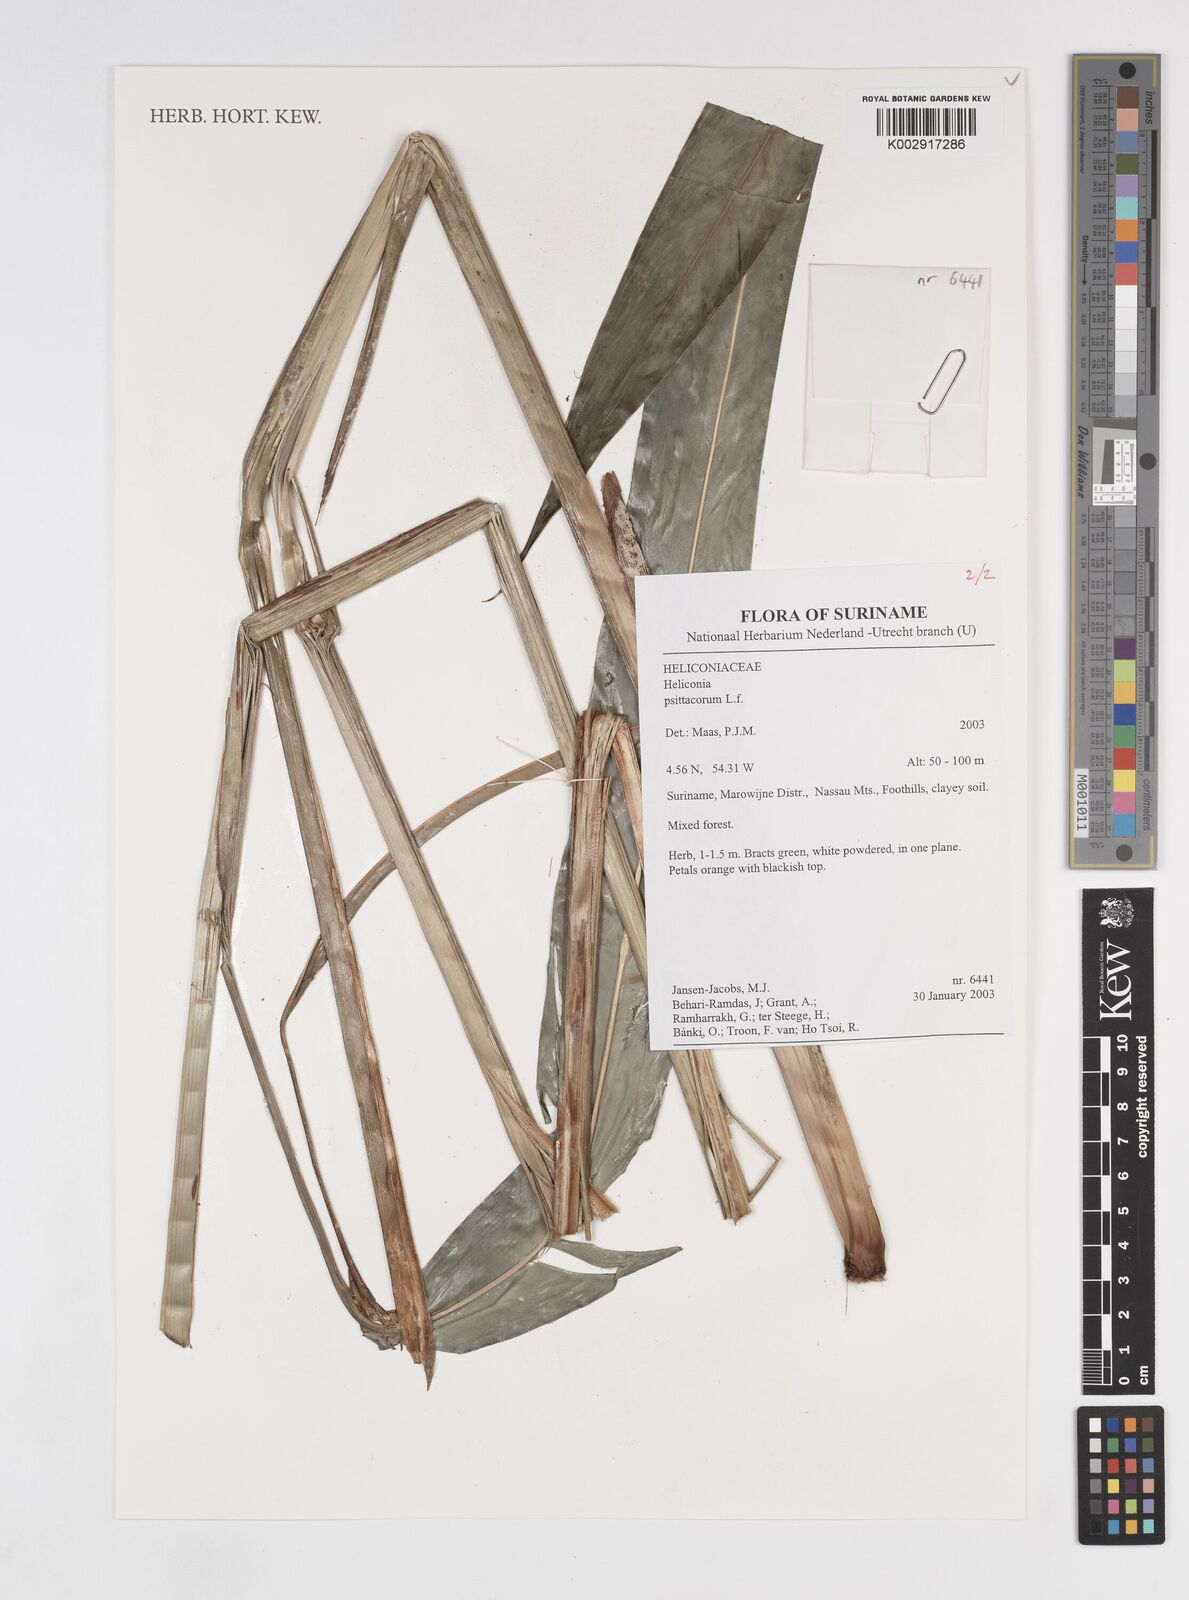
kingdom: Plantae
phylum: Tracheophyta
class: Liliopsida
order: Zingiberales
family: Heliconiaceae
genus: Heliconia
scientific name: Heliconia psittacorum
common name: Parrot's-flower
